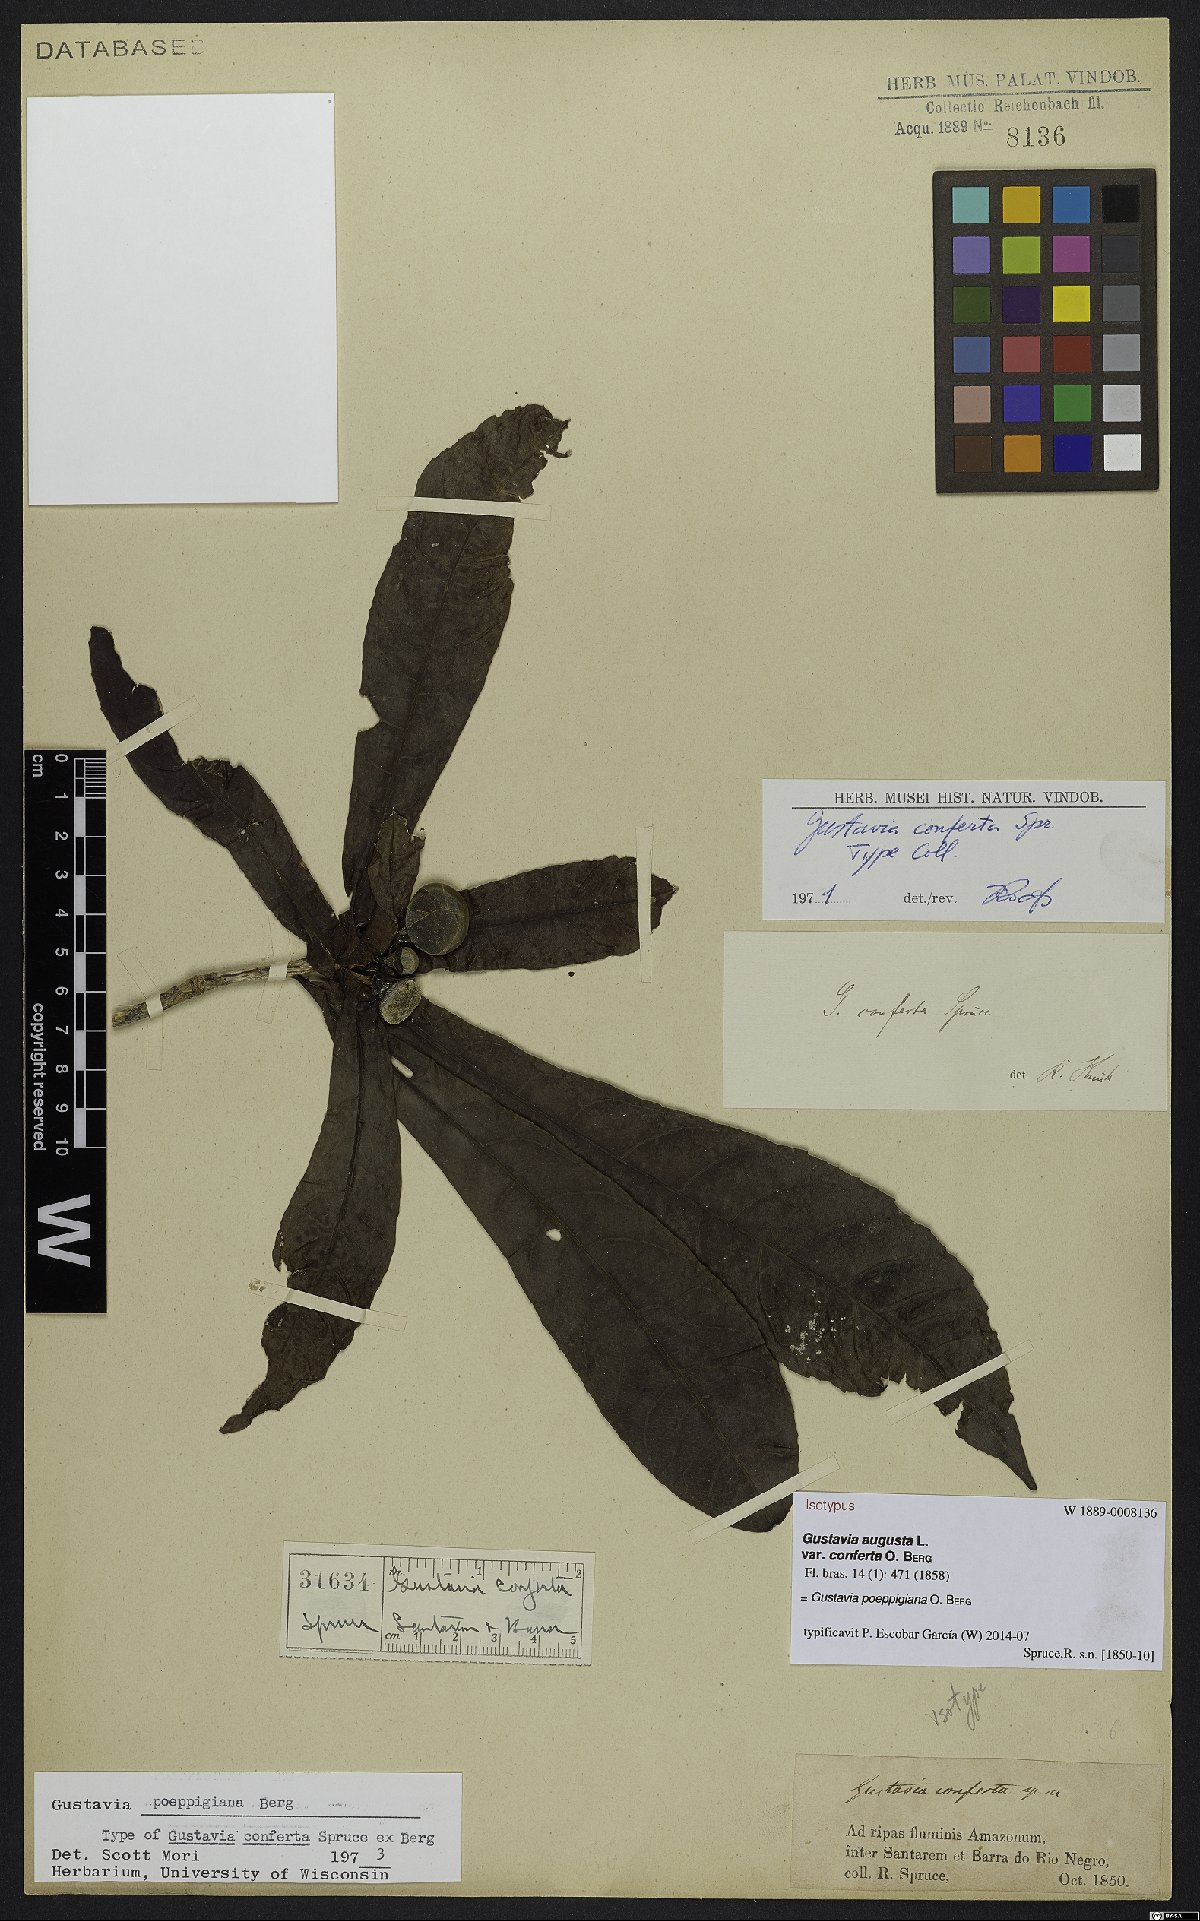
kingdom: Plantae
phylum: Tracheophyta
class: Magnoliopsida
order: Ericales
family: Lecythidaceae
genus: Gustavia
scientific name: Gustavia poeppigiana
